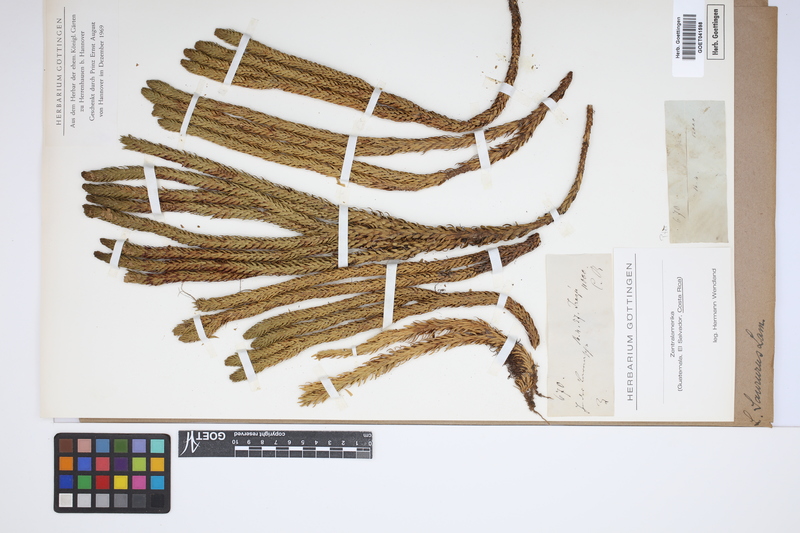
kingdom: Plantae
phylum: Tracheophyta
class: Lycopodiopsida
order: Lycopodiales
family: Lycopodiaceae
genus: Phlegmariurus
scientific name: Phlegmariurus saururus
